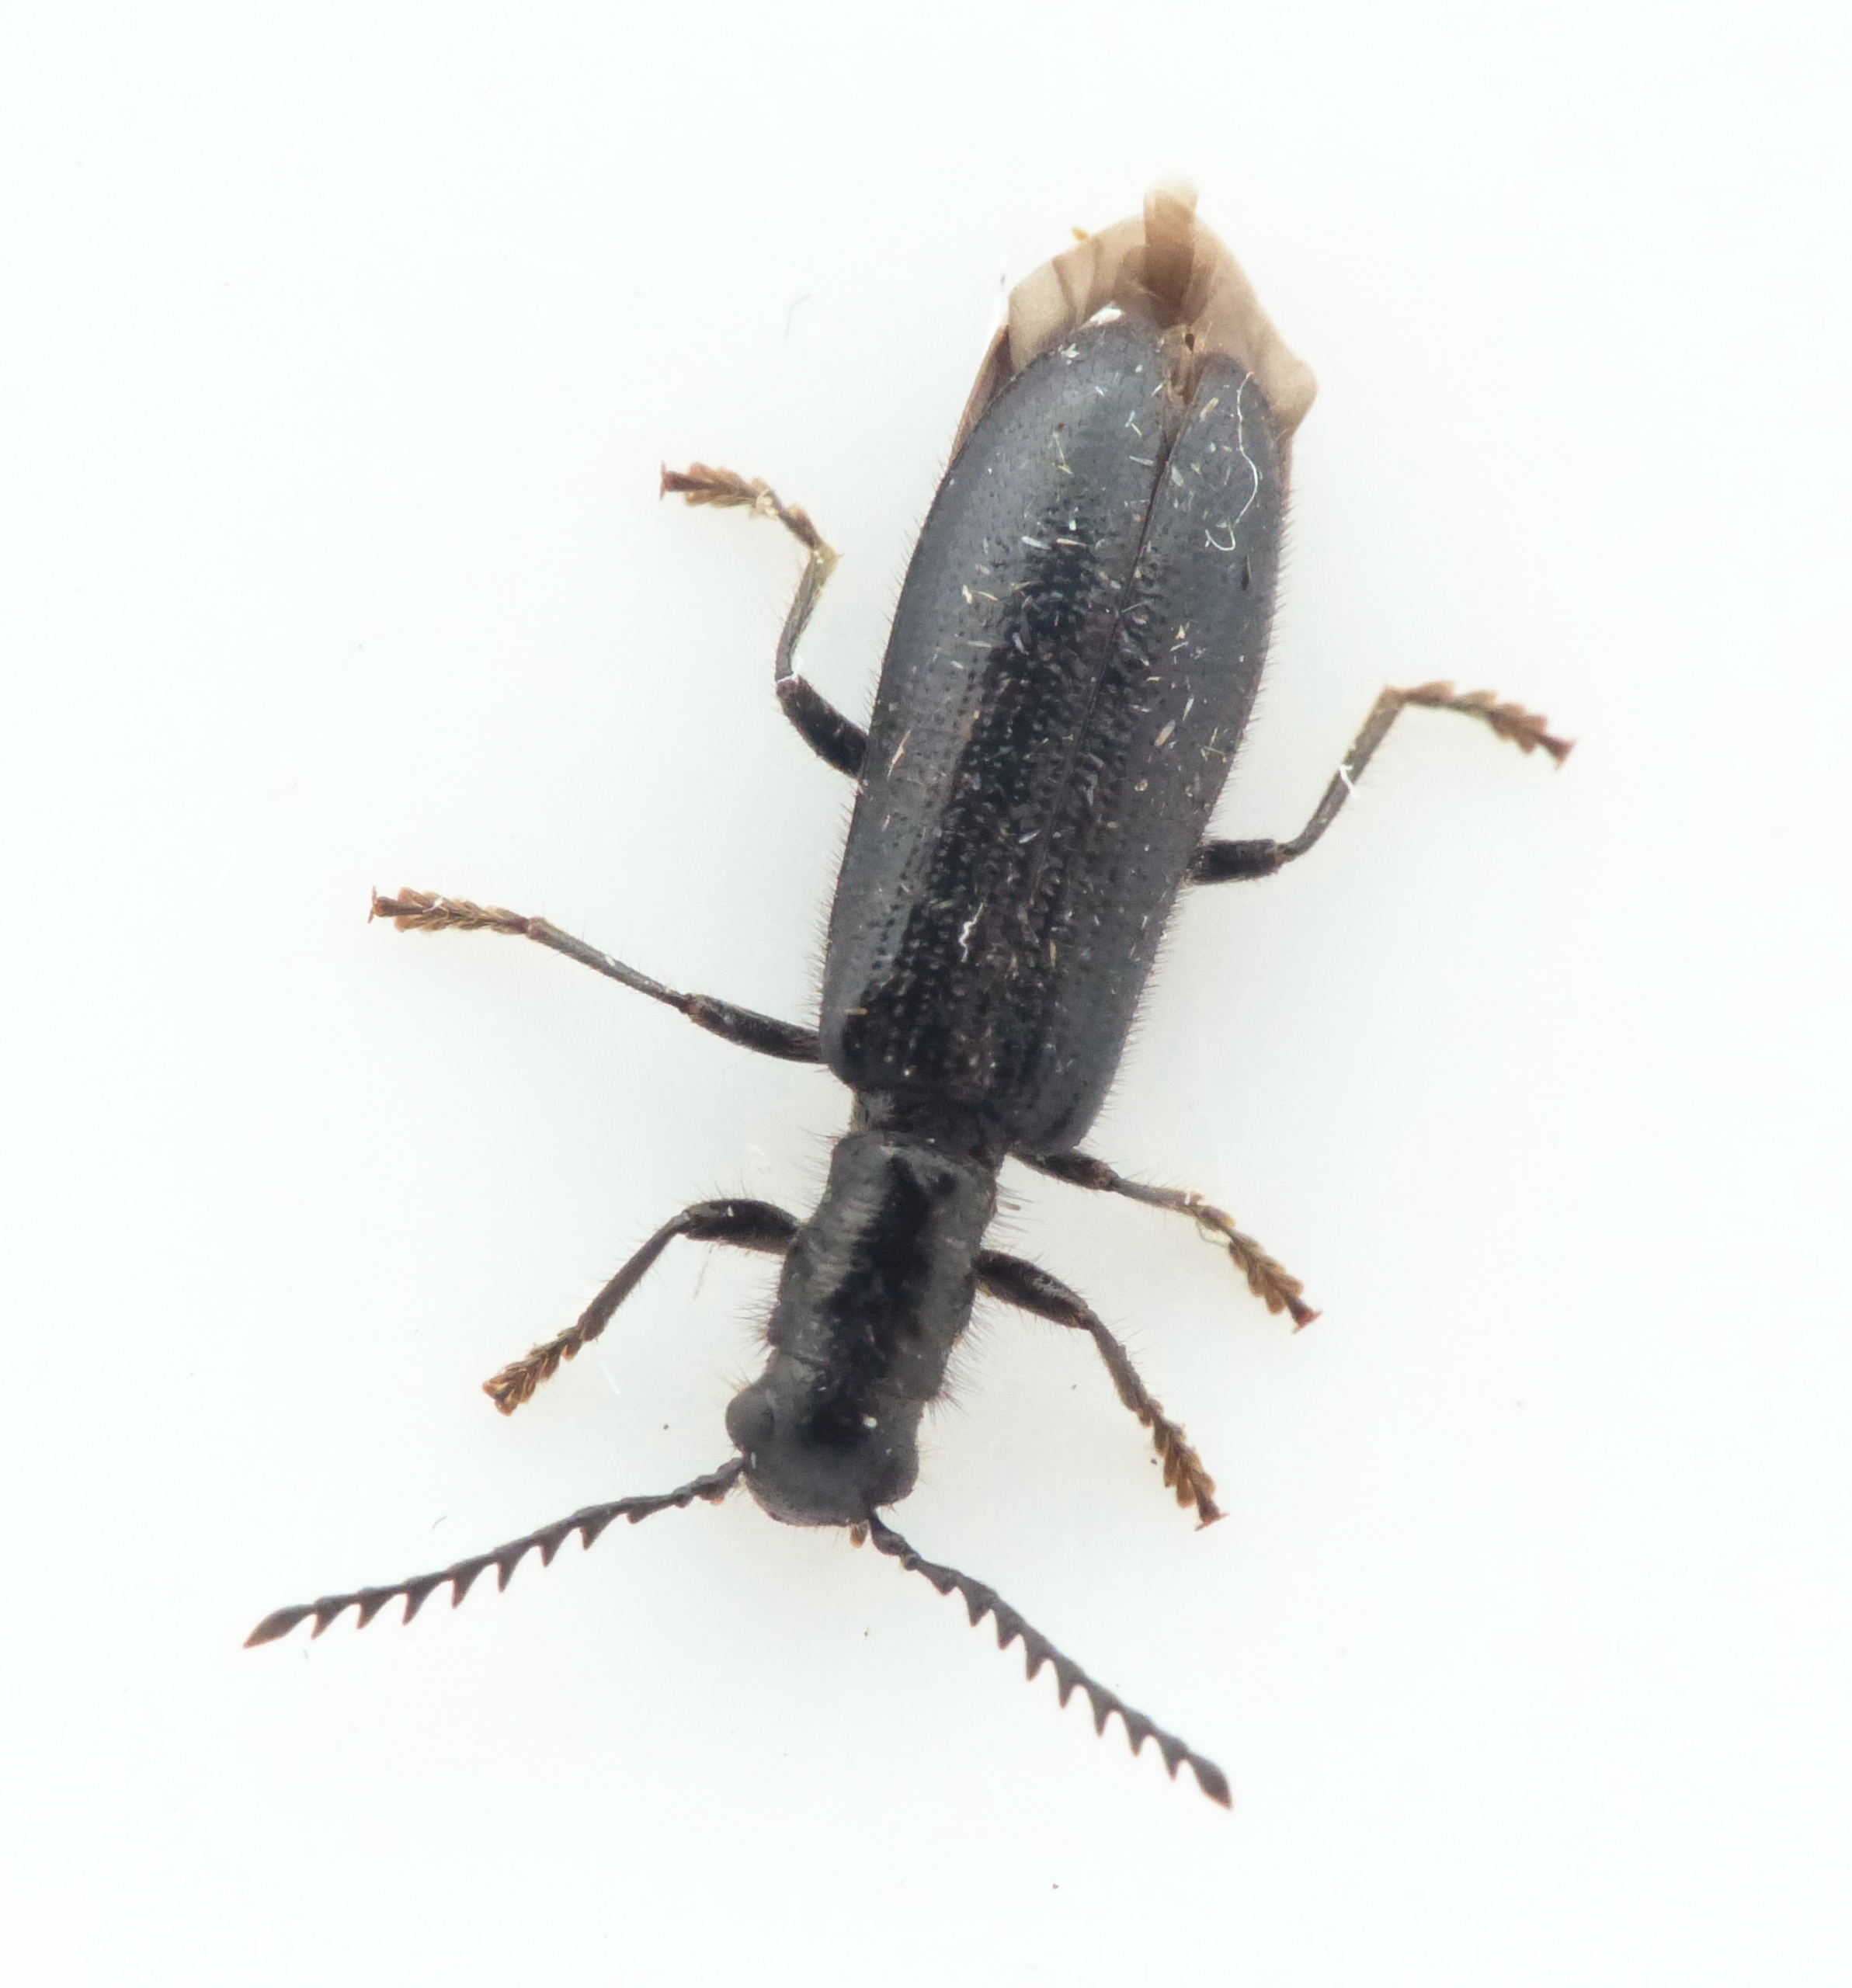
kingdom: Animalia
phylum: Arthropoda
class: Insecta
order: Coleoptera
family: Cleridae
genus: Tillus
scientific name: Tillus elongatus
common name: Blank myrebille
